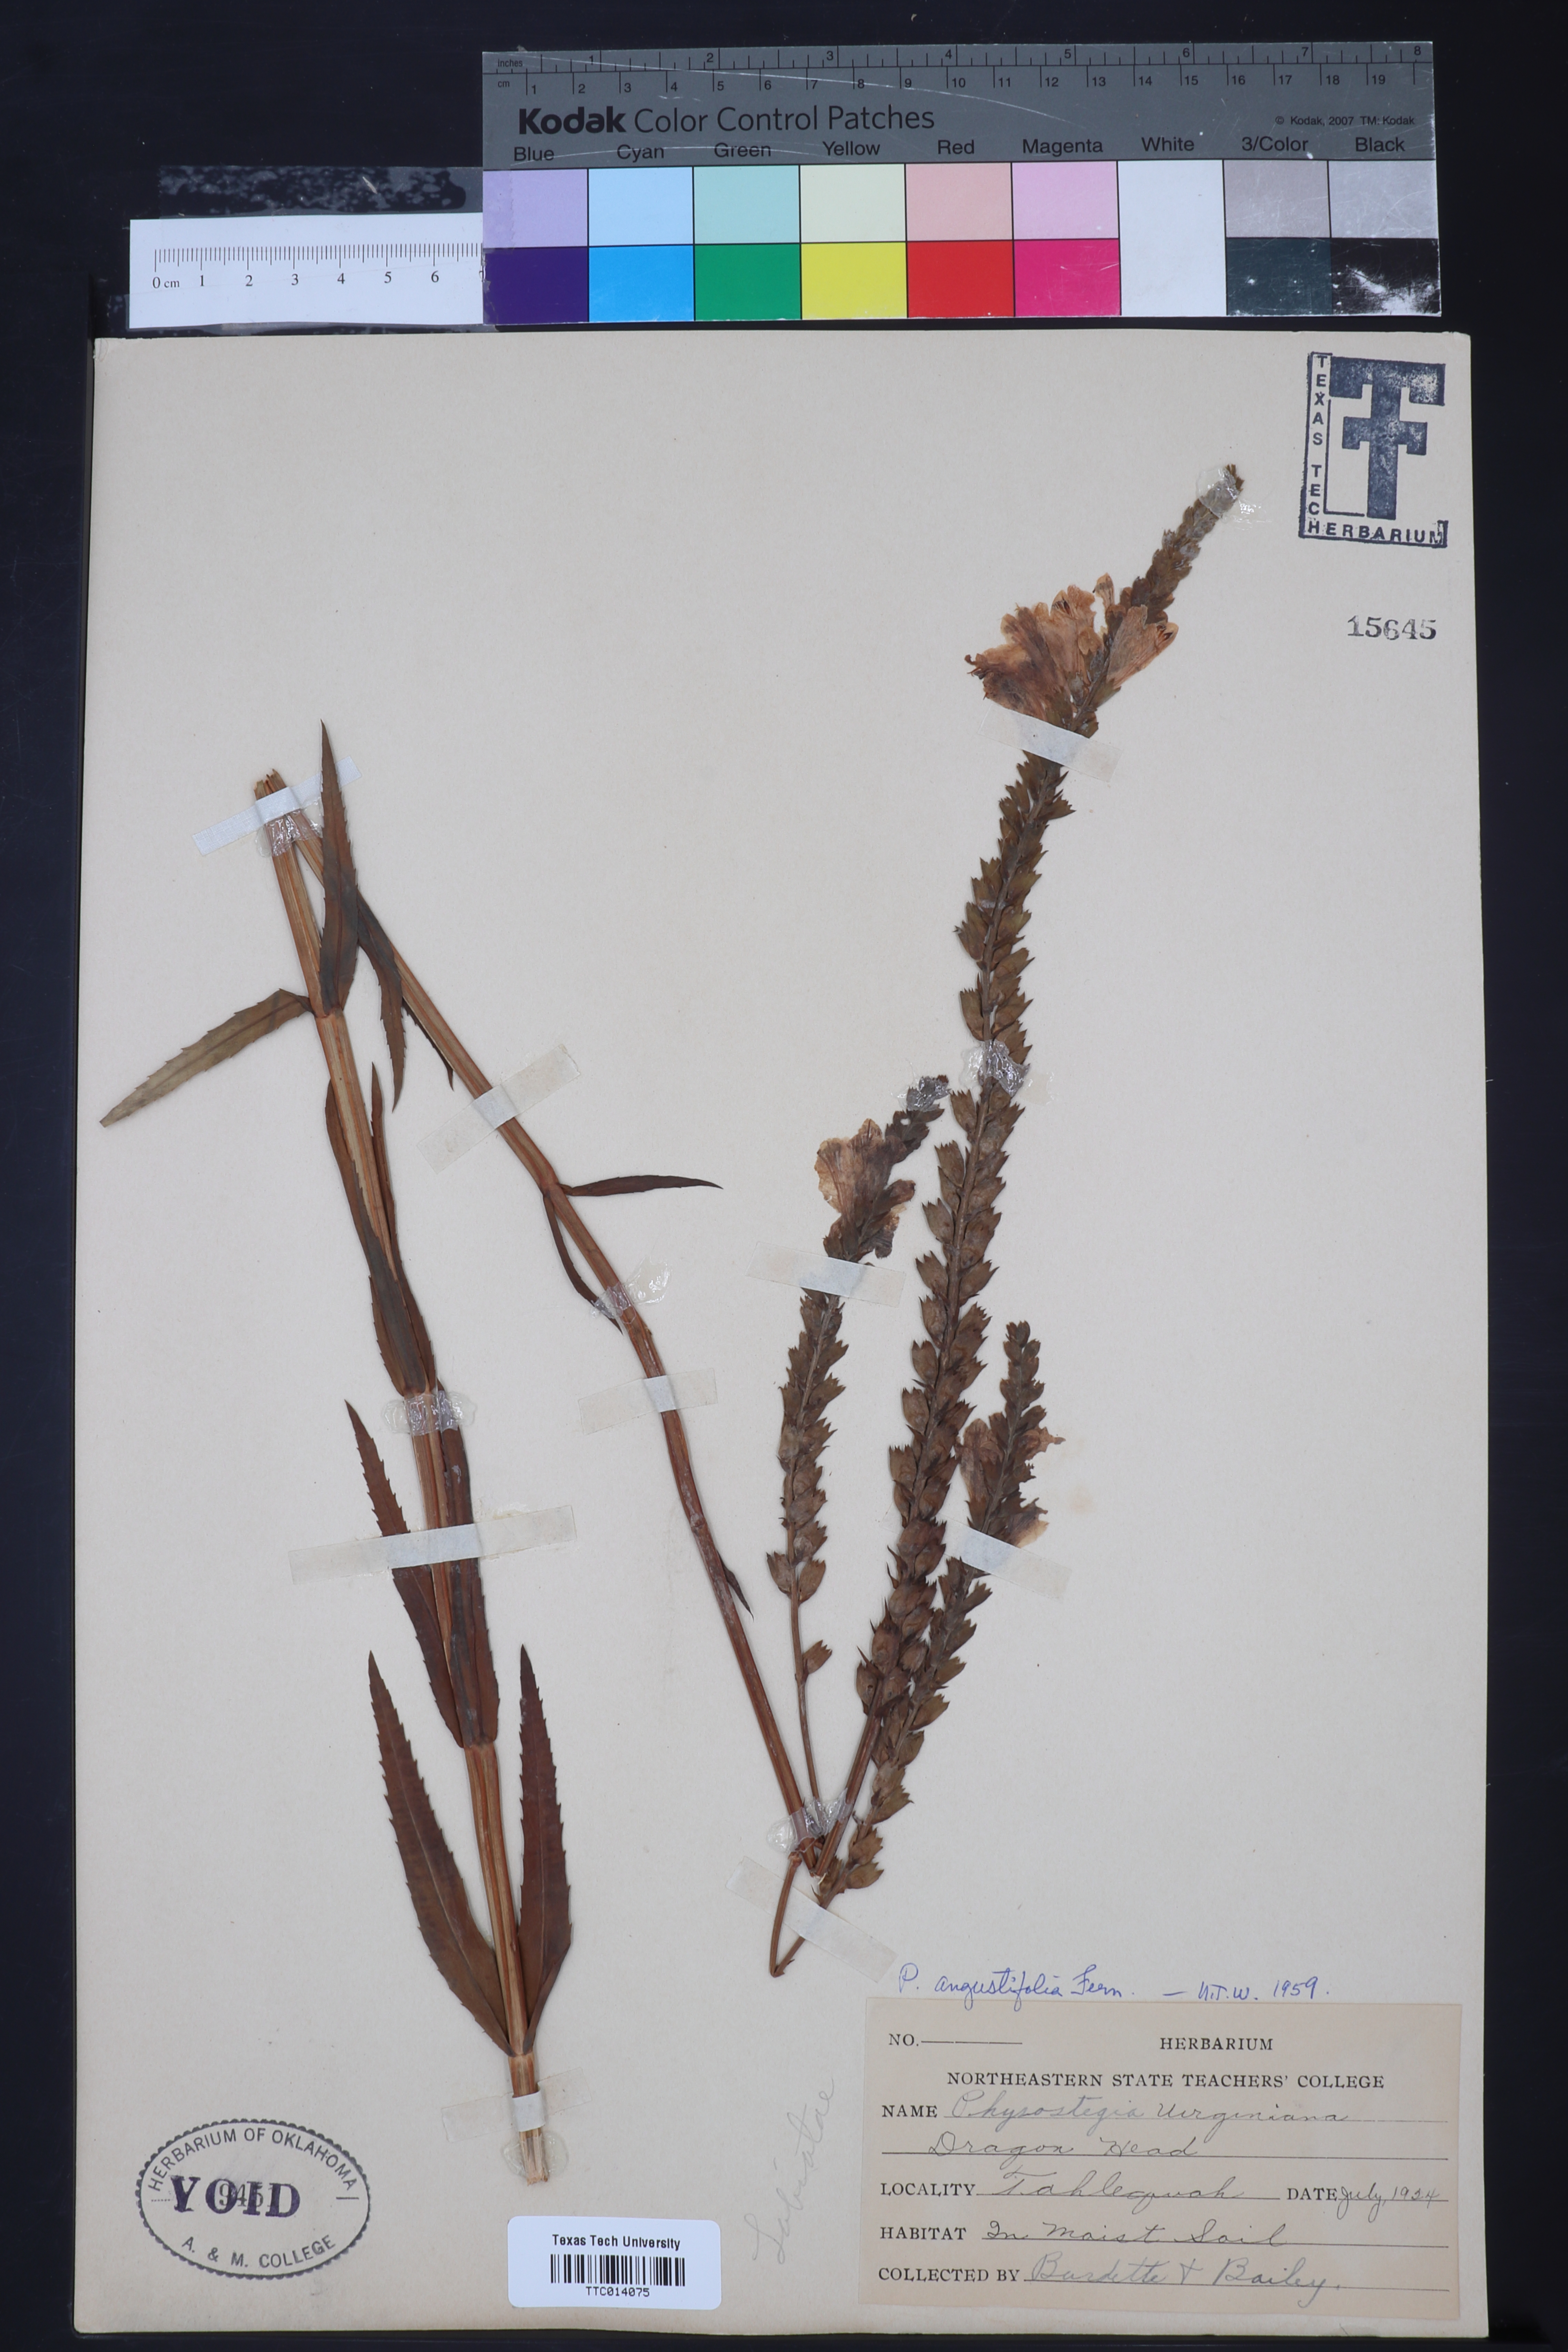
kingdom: Plantae
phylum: Tracheophyta
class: Magnoliopsida
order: Lamiales
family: Lamiaceae
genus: Physostegia
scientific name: Physostegia angustifolia
